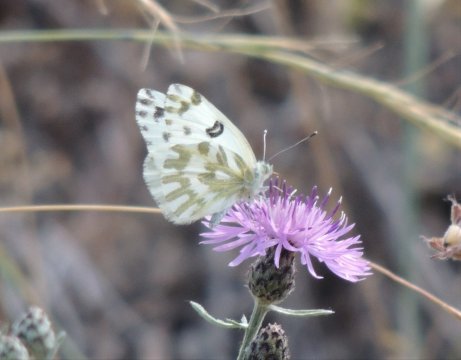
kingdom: Animalia
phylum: Arthropoda
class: Insecta
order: Lepidoptera
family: Pieridae
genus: Pontia
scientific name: Pontia beckerii
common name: Becker's White
